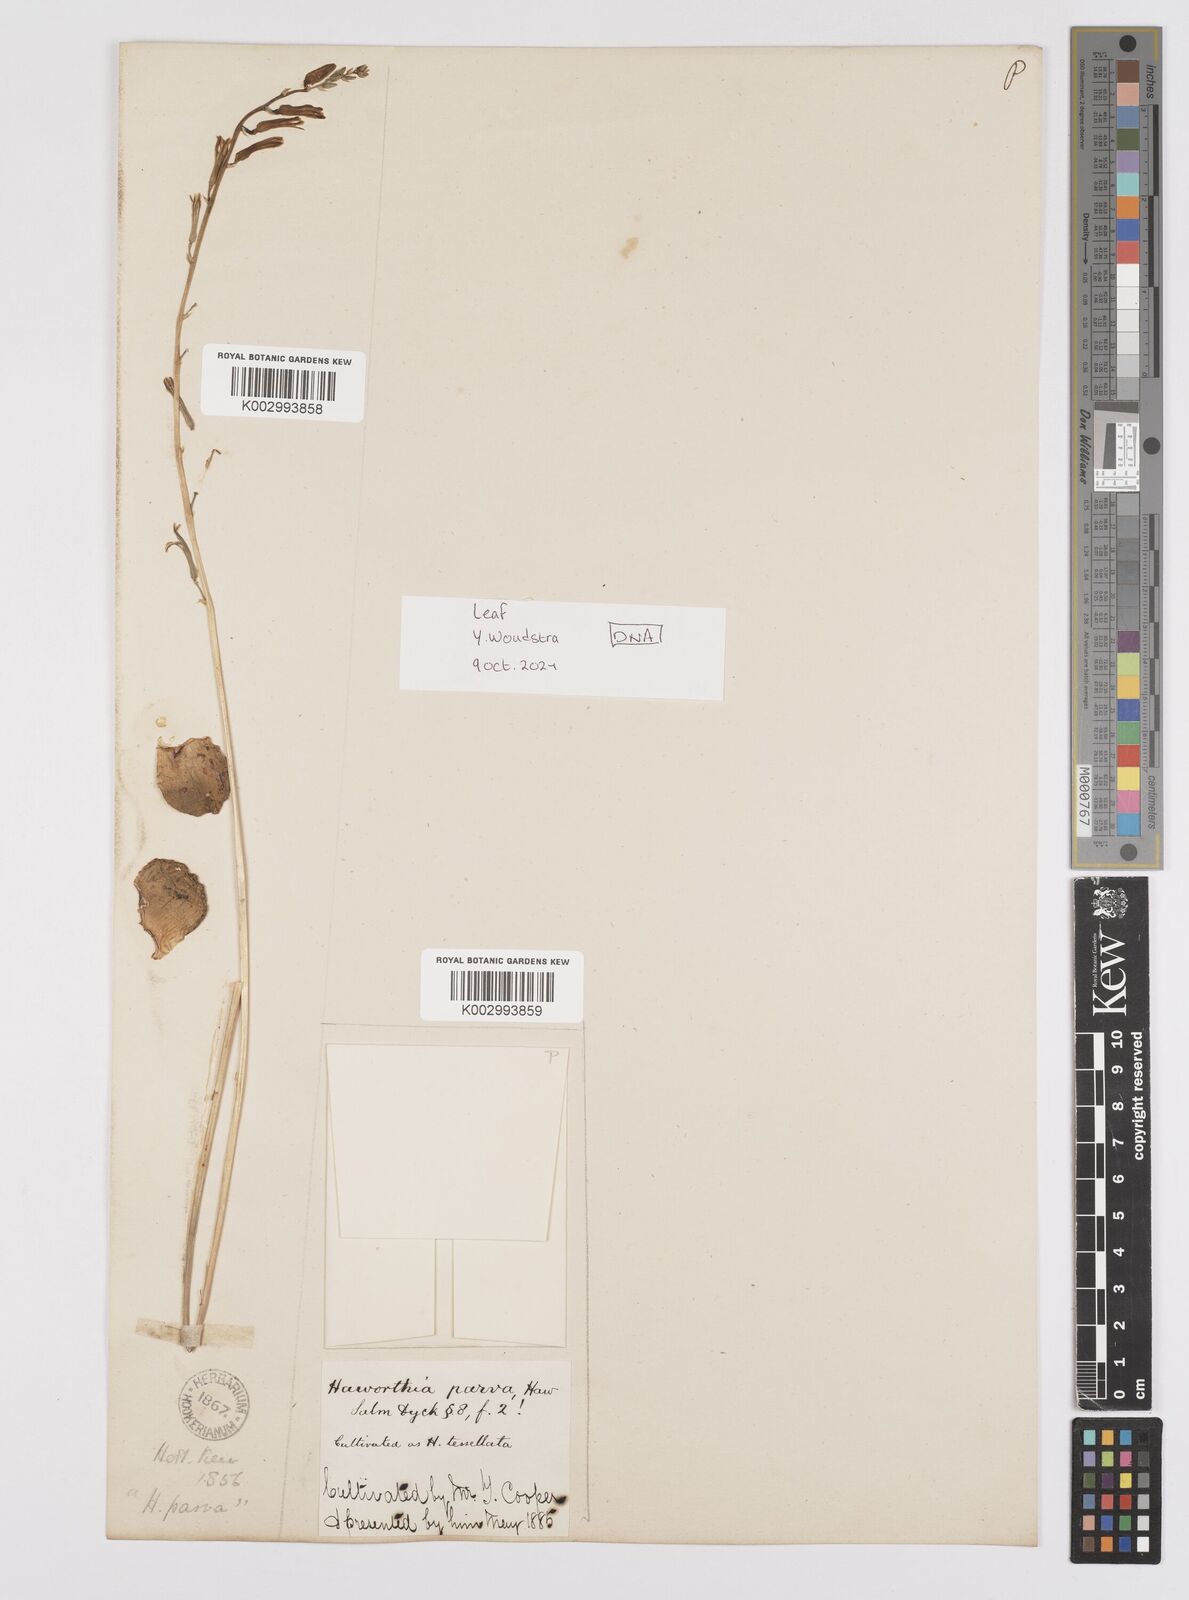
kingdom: Plantae
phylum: Tracheophyta
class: Liliopsida
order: Asparagales
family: Asphodelaceae
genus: Haworthiopsis
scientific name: Haworthiopsis tessellata
